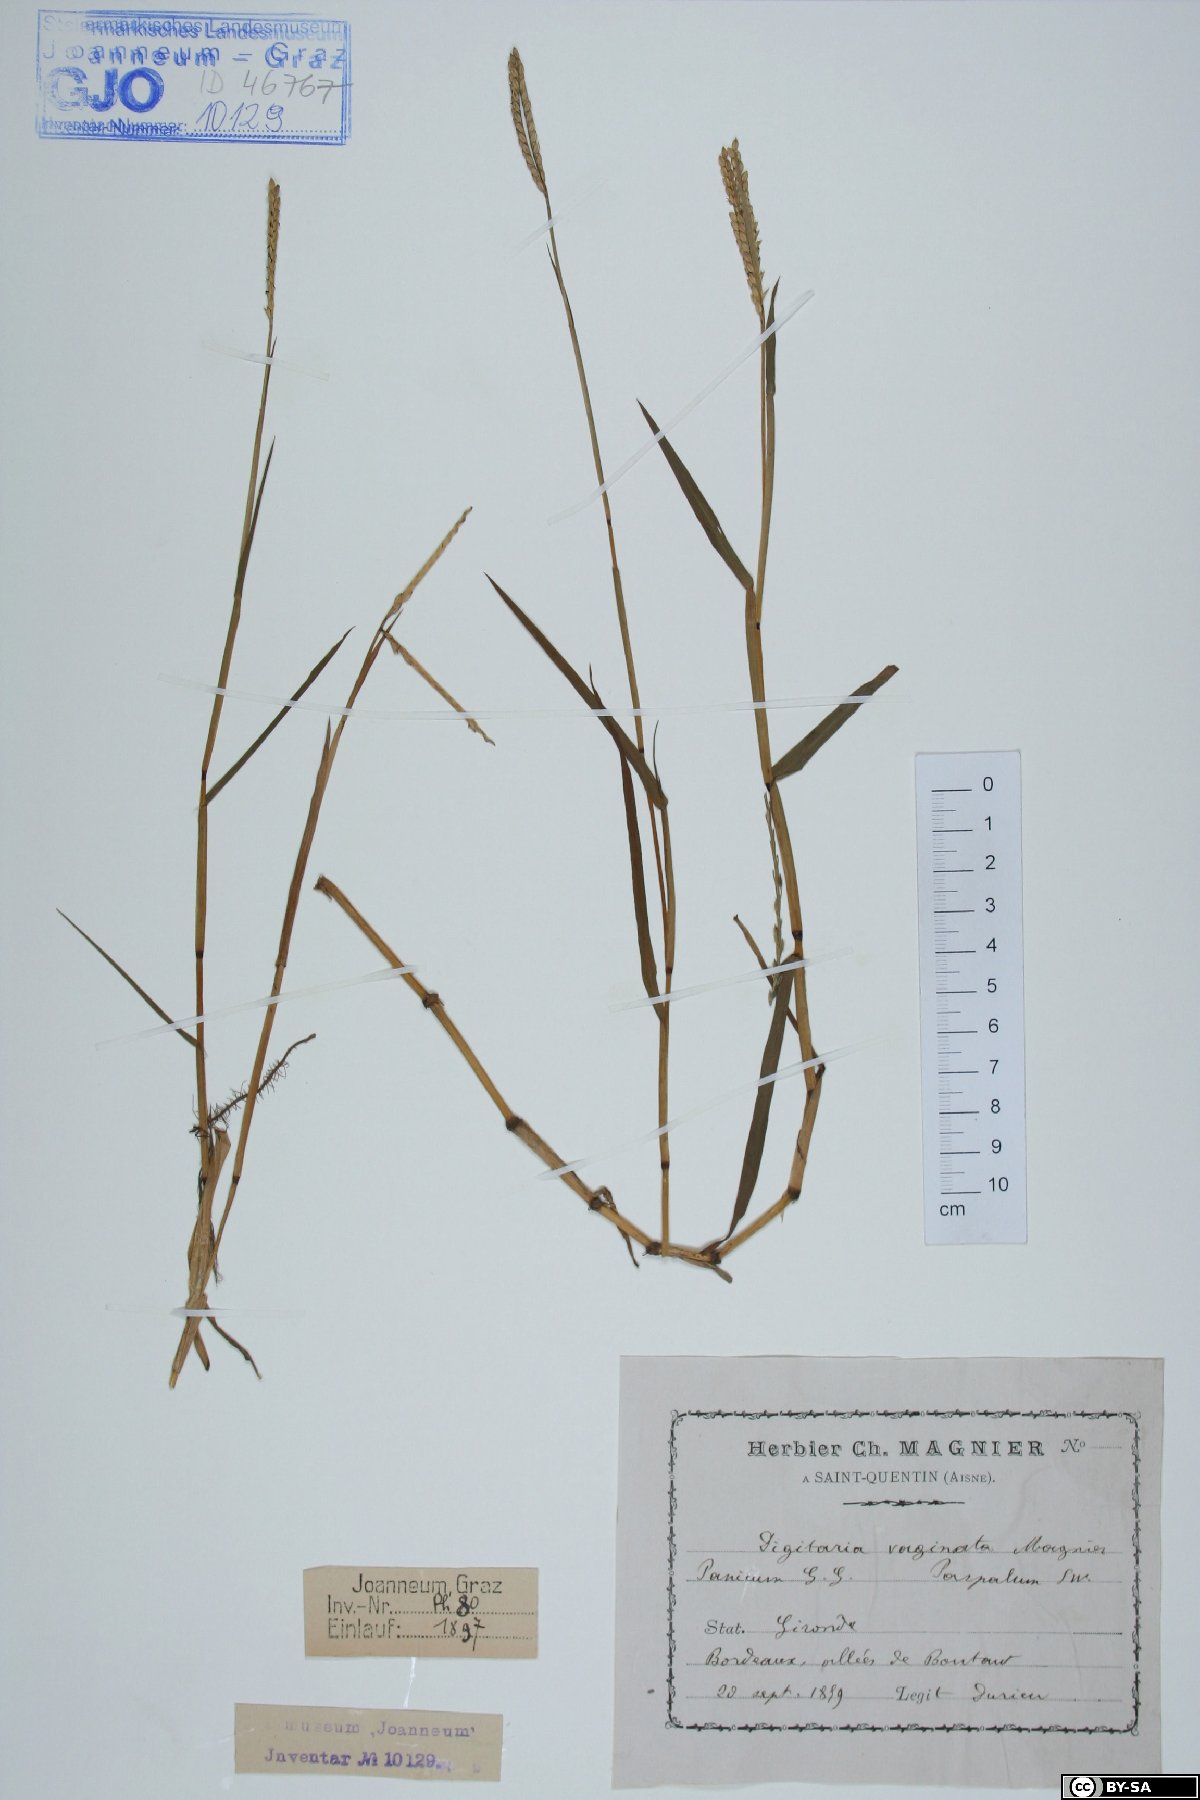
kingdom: Plantae
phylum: Tracheophyta
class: Liliopsida
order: Poales
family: Poaceae
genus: Paspalum
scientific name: Paspalum vaginatum
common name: Seashore paspalum
